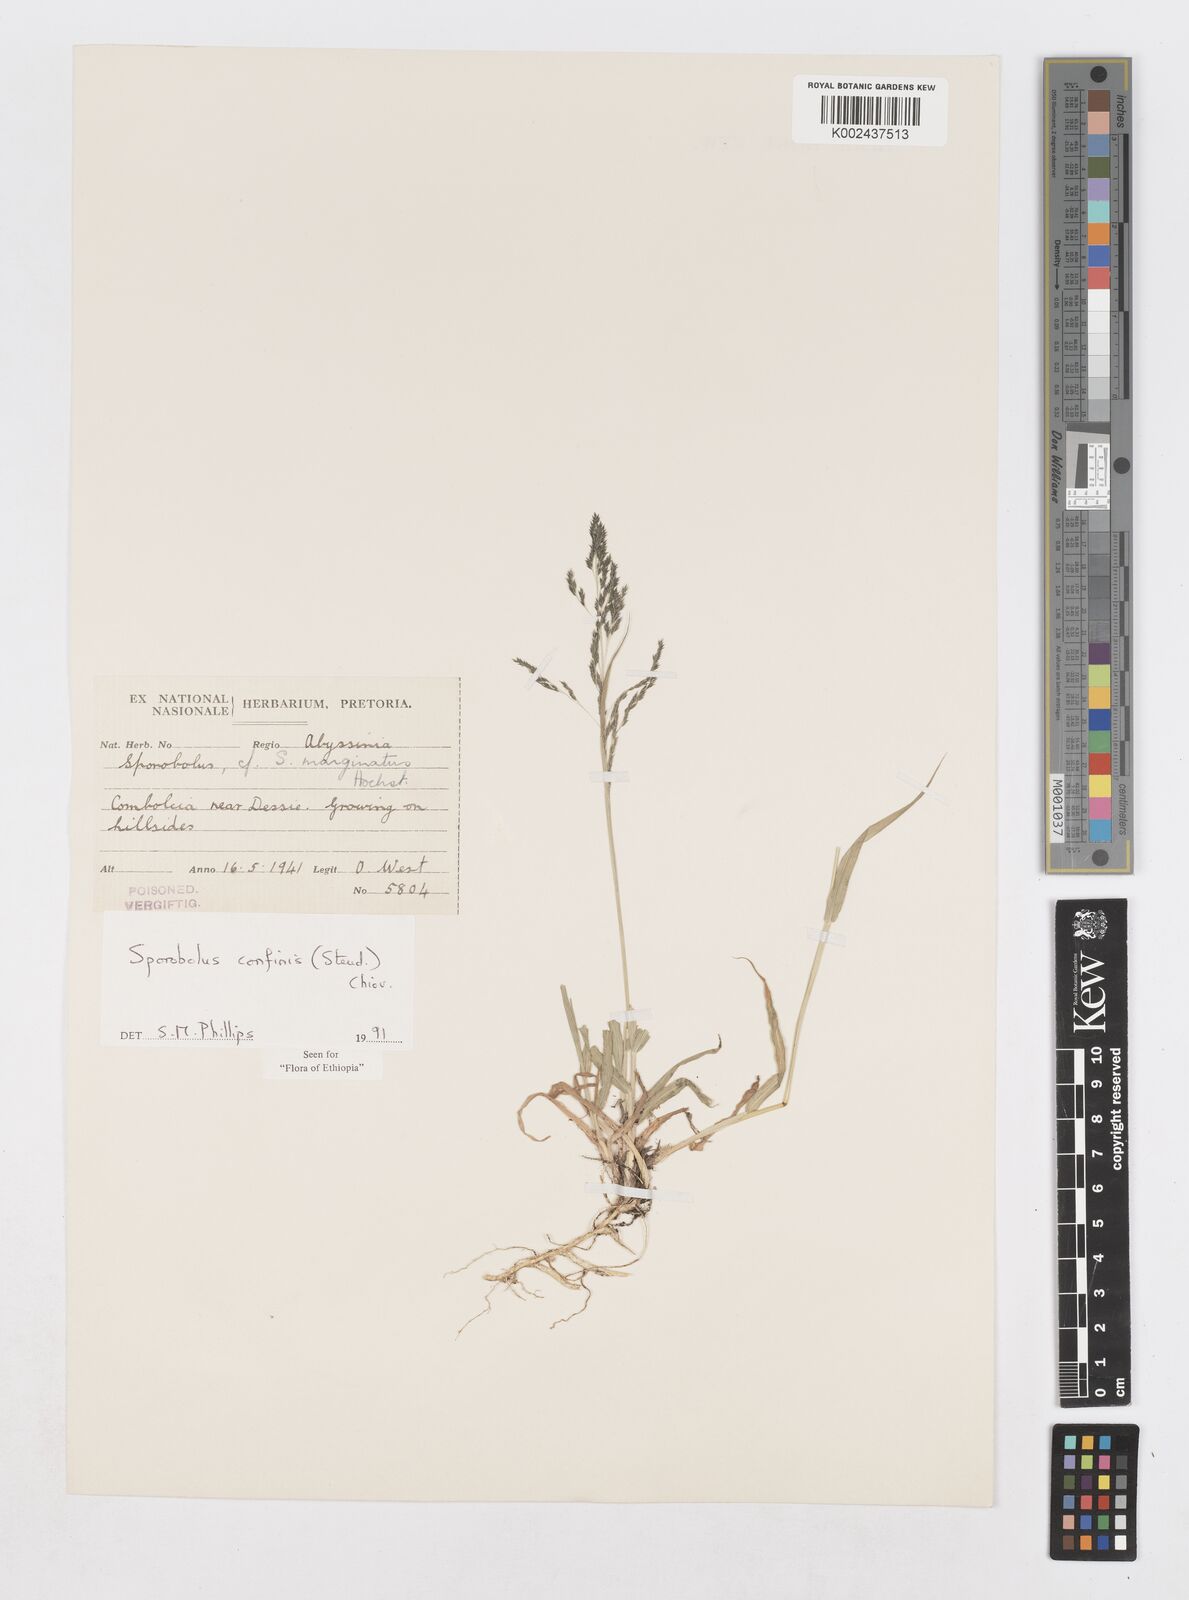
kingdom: Plantae
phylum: Tracheophyta
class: Liliopsida
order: Poales
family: Poaceae
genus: Sporobolus
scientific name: Sporobolus confinis
